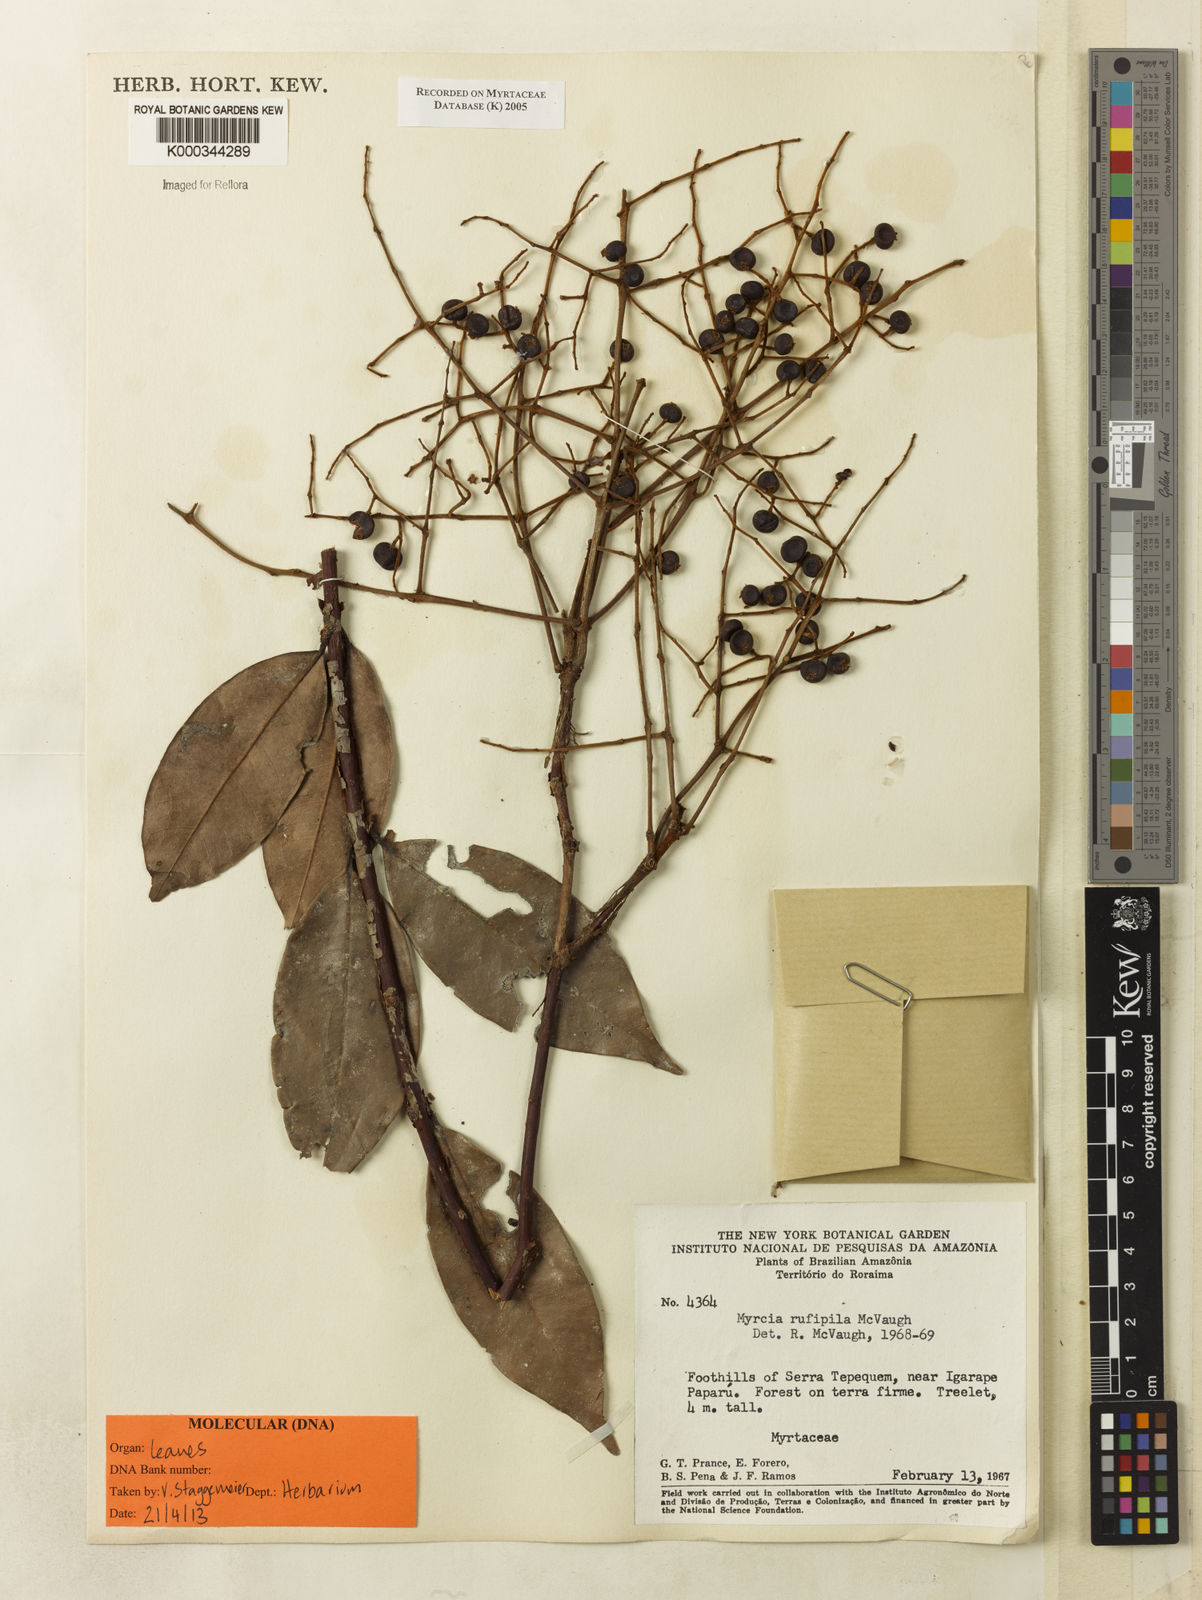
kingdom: Plantae
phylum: Tracheophyta
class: Magnoliopsida
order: Myrtales
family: Myrtaceae
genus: Myrcia
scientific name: Myrcia rufipila
